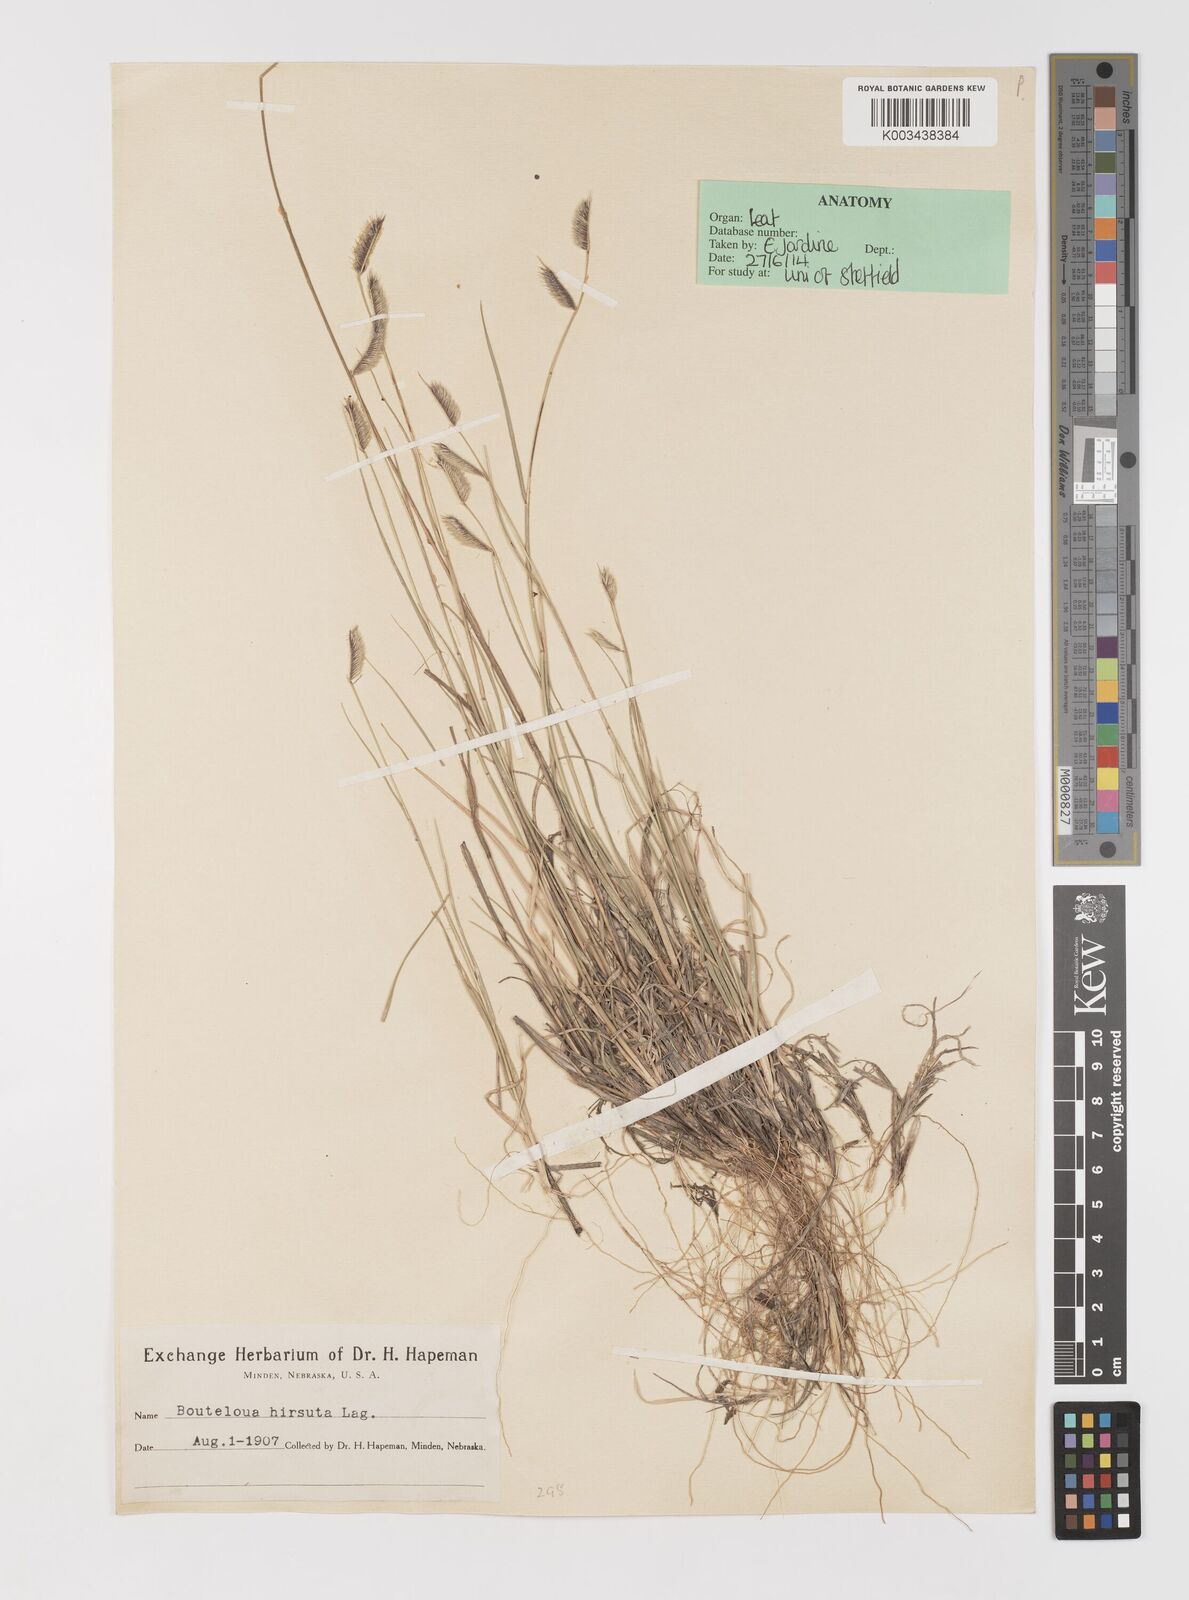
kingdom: Plantae
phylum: Tracheophyta
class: Liliopsida
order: Poales
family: Poaceae
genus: Bouteloua
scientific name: Bouteloua hirsuta
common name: Hairy grama
